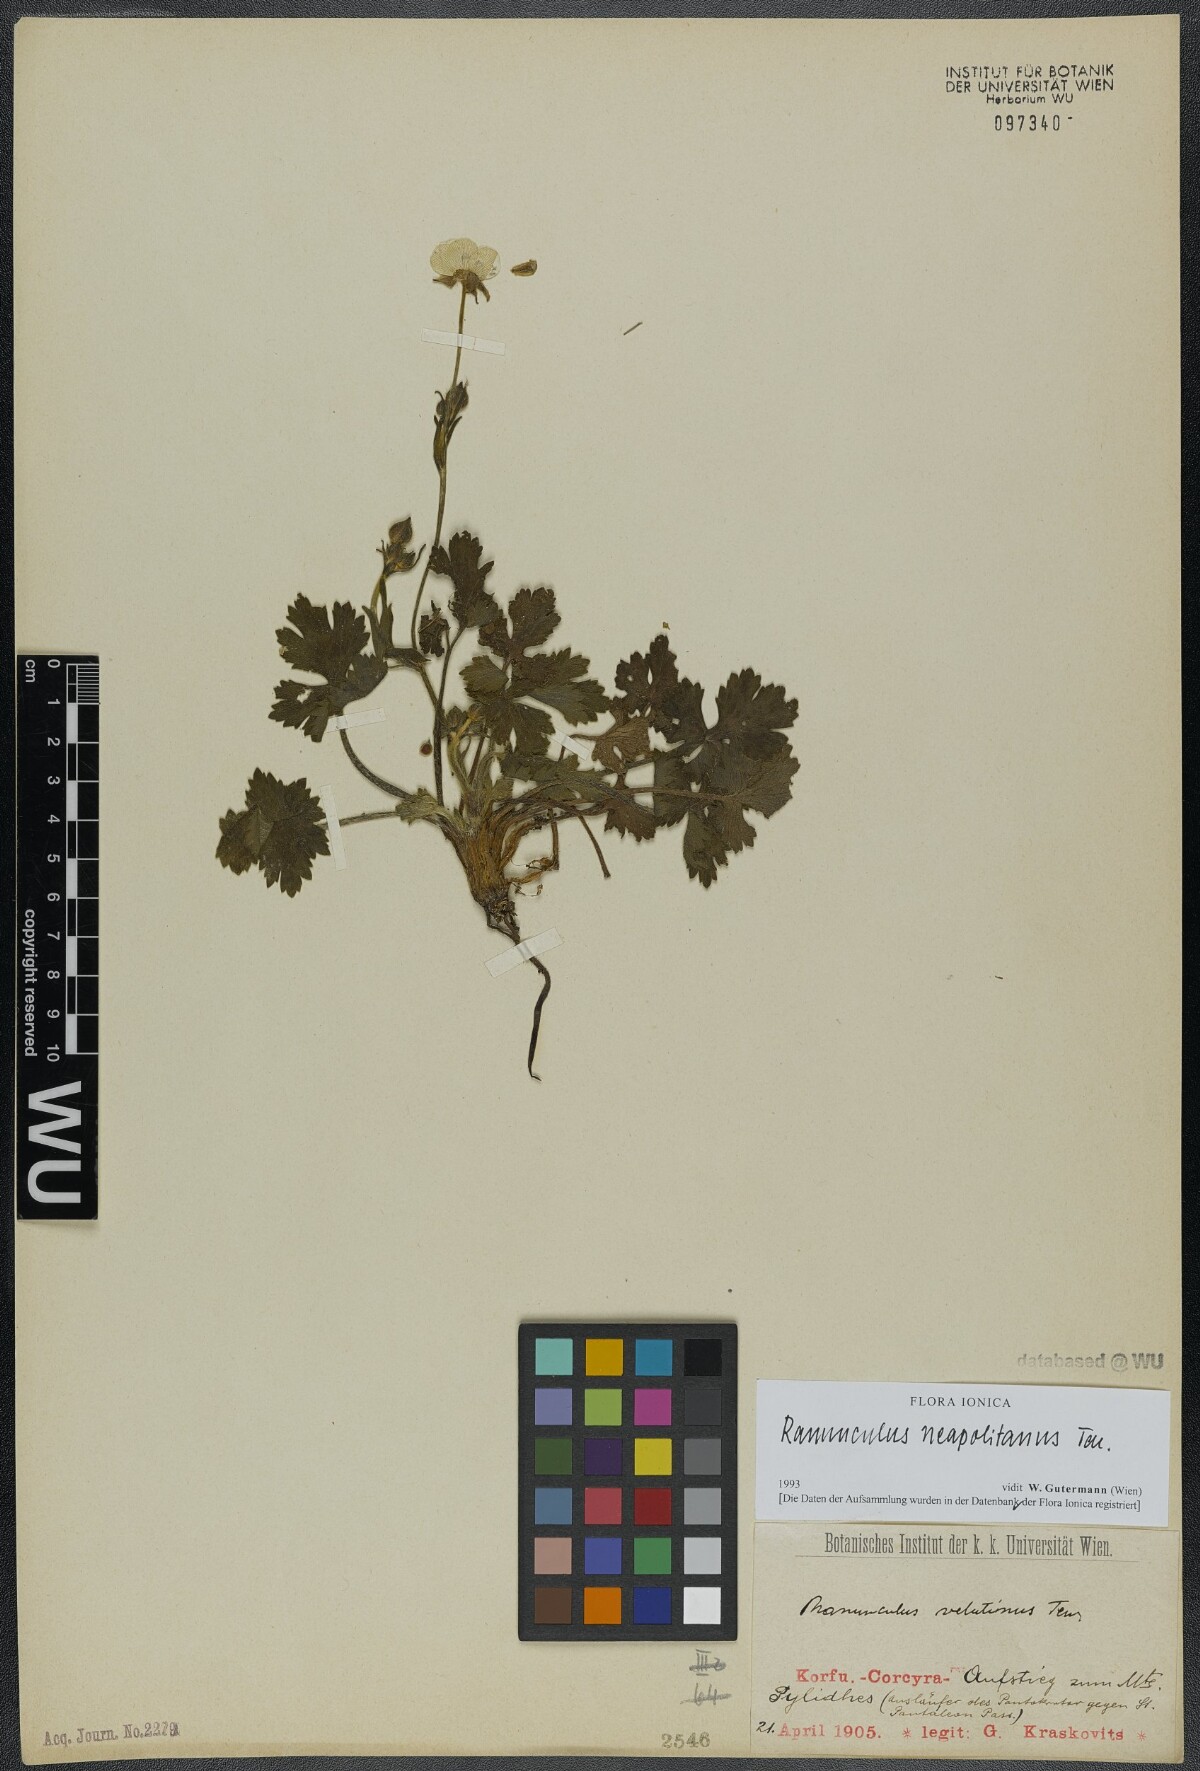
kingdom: Plantae
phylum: Tracheophyta
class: Magnoliopsida
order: Ranunculales
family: Ranunculaceae
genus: Ranunculus
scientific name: Ranunculus neapolitanus
